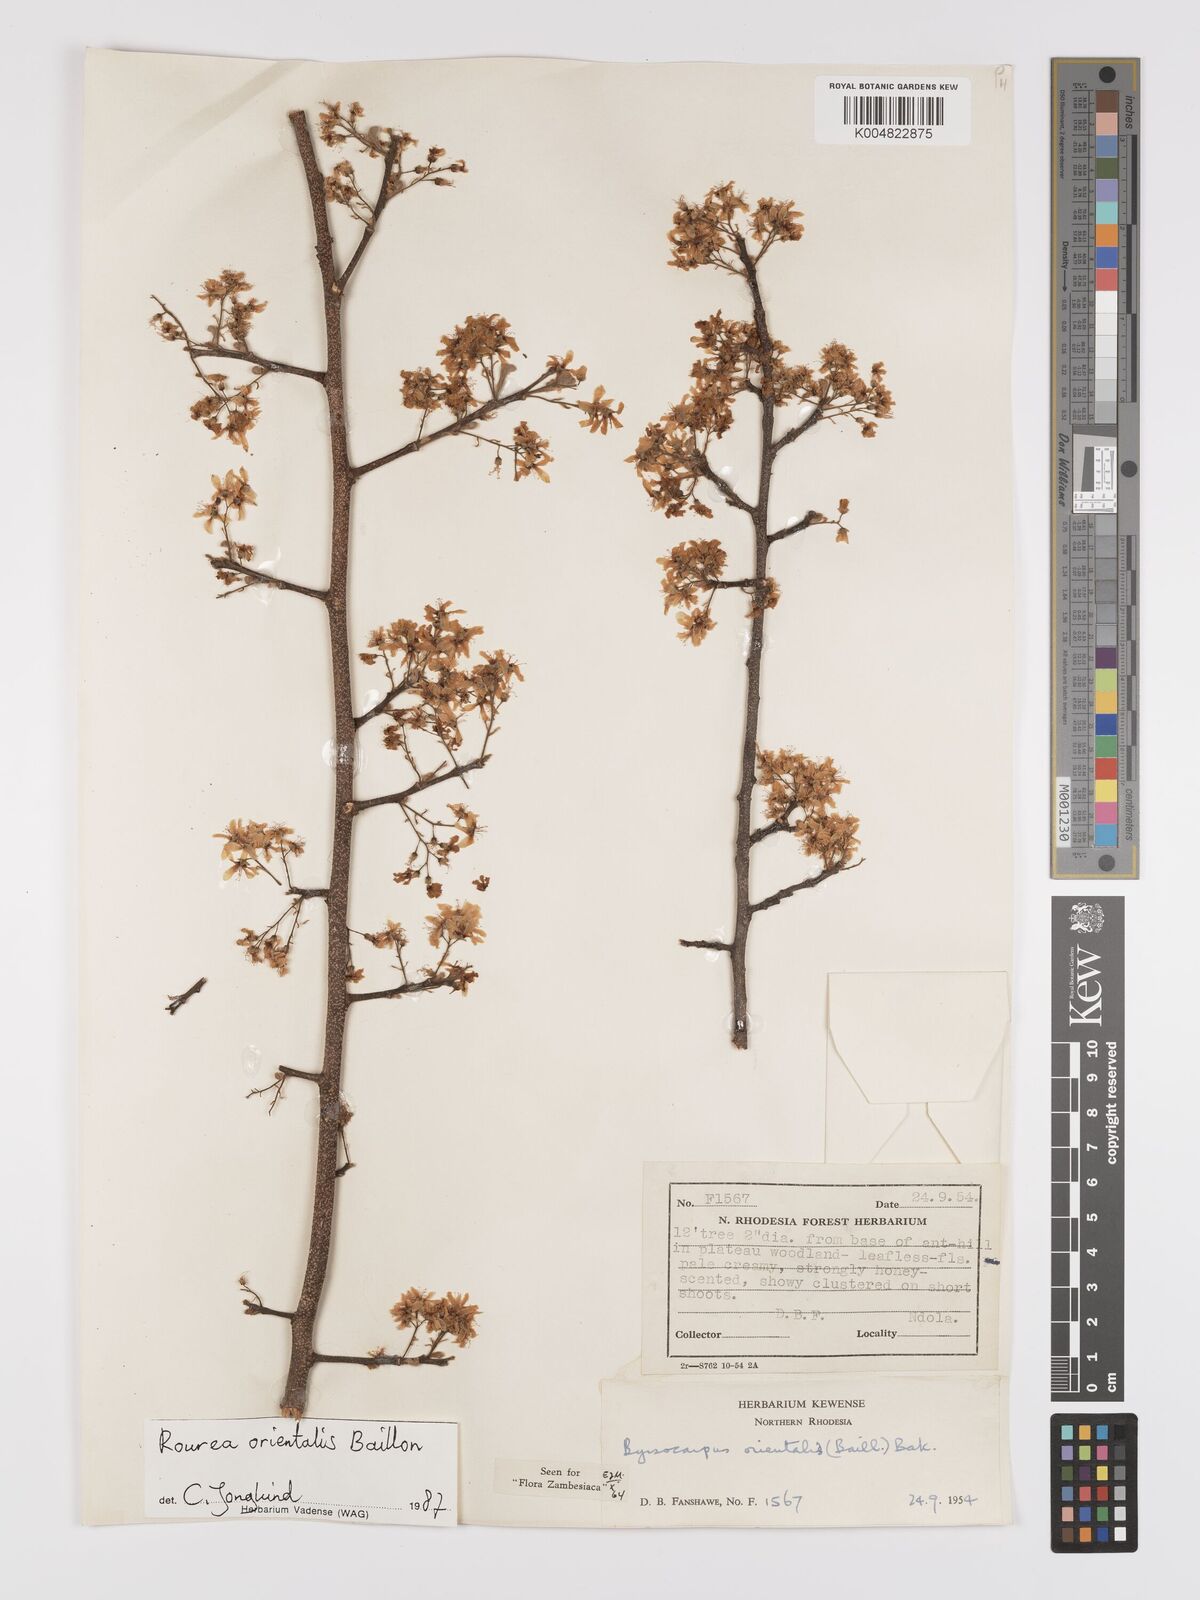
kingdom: Plantae
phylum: Tracheophyta
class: Magnoliopsida
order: Oxalidales
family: Connaraceae
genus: Rourea
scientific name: Rourea orientalis
